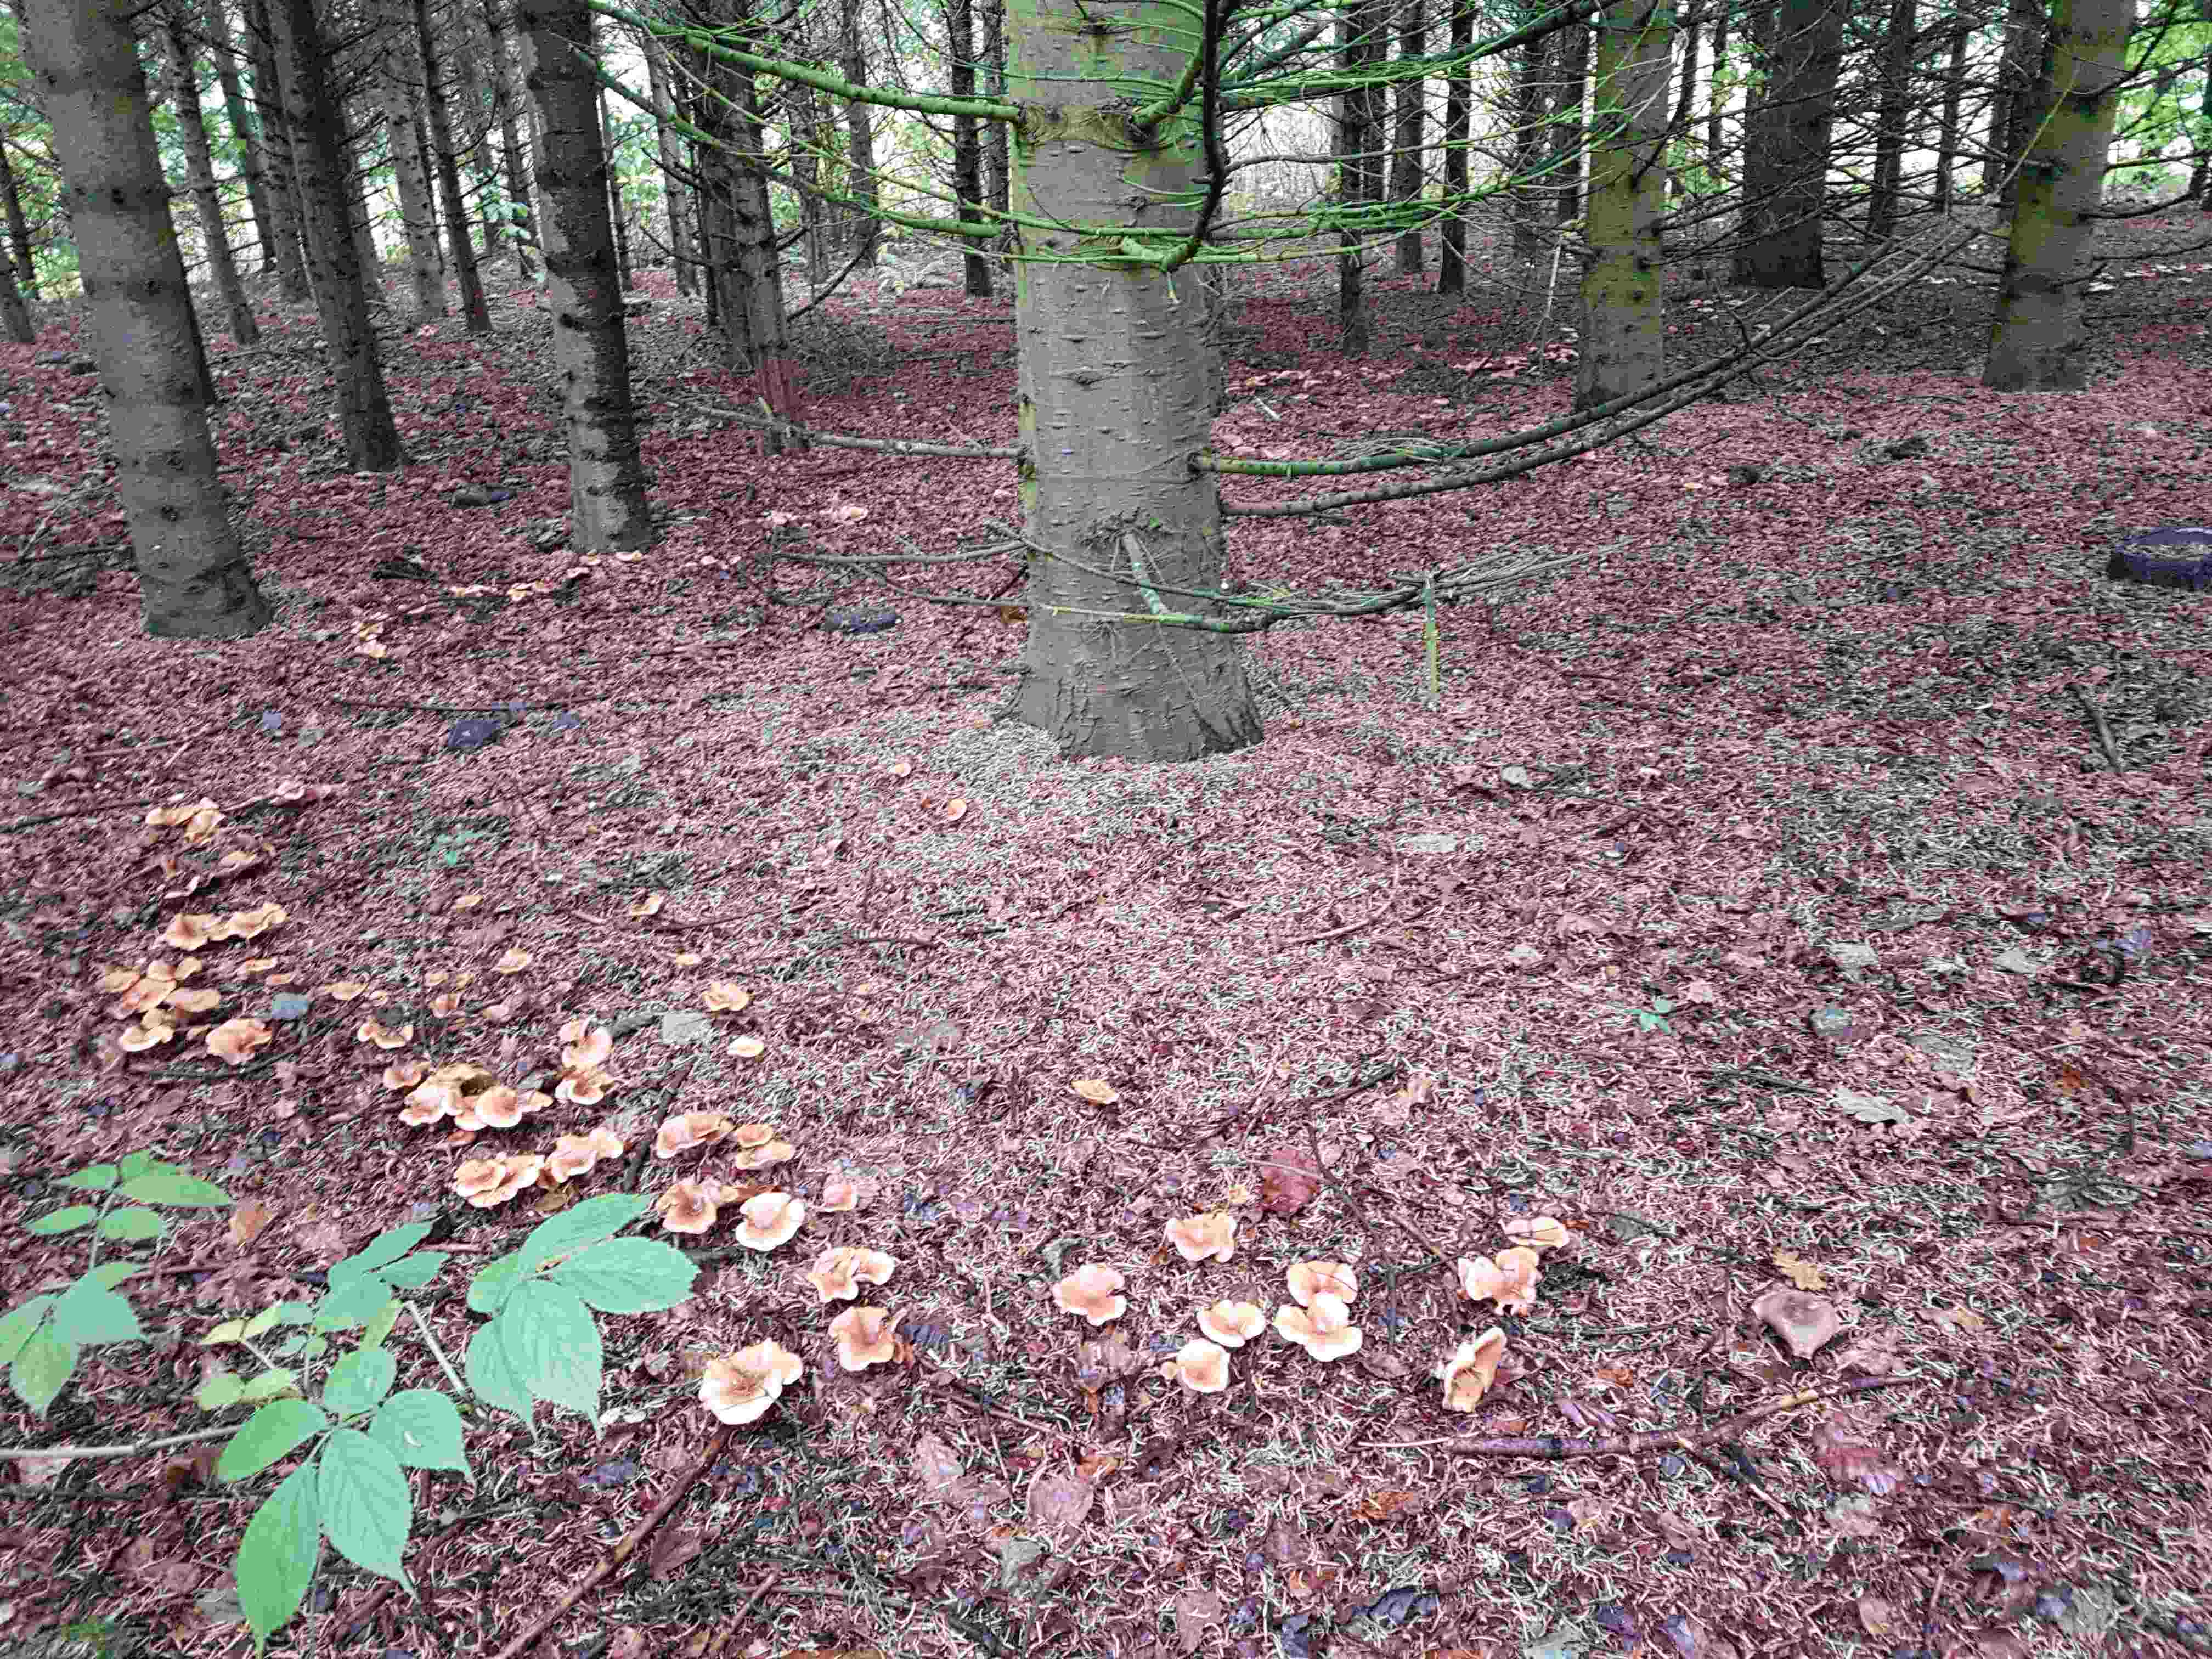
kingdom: Fungi
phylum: Basidiomycota
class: Agaricomycetes
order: Agaricales
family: Tricholomataceae
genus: Paralepista
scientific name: Paralepista flaccida
